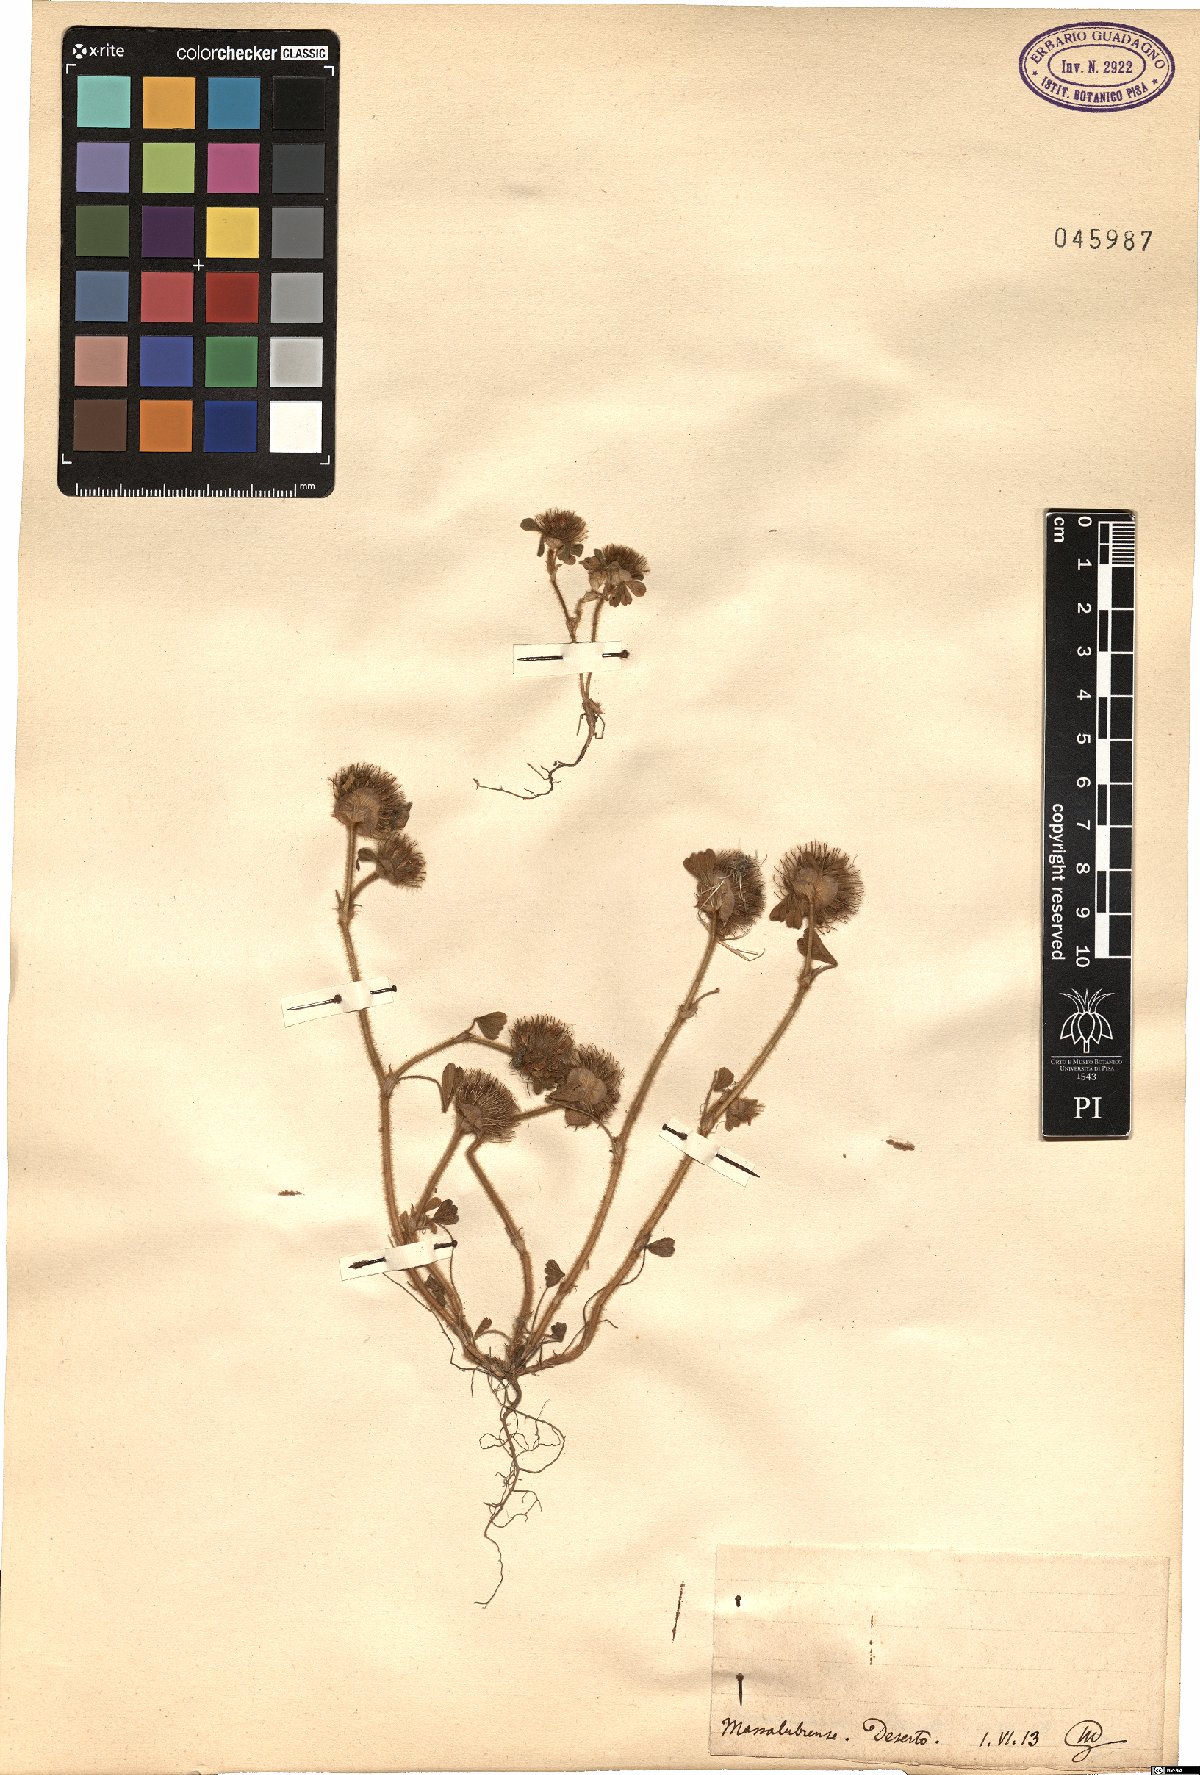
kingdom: Plantae
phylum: Tracheophyta
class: Magnoliopsida
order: Fabales
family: Fabaceae
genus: Trifolium
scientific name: Trifolium
